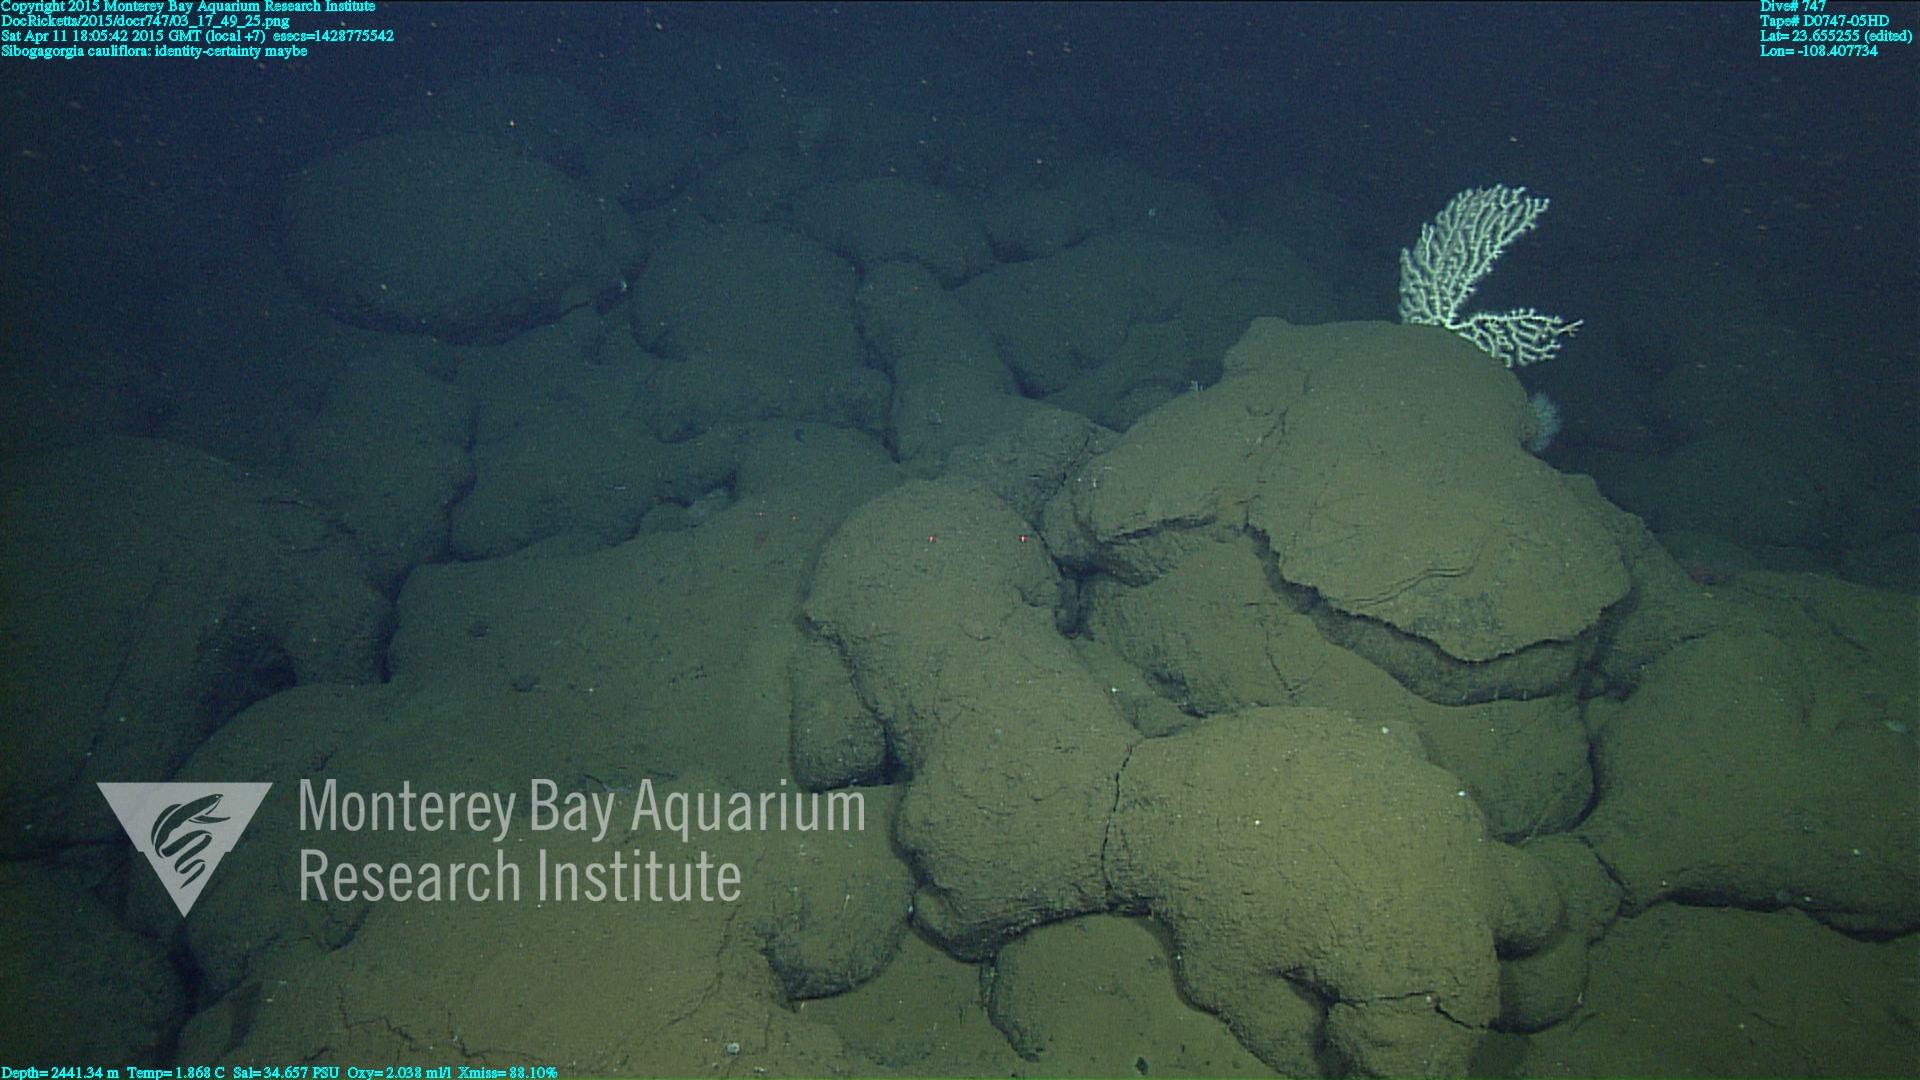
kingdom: Animalia
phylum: Cnidaria
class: Anthozoa
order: Scleralcyonacea
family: Coralliidae
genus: Sibogagorgia
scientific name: Sibogagorgia cauliflora
